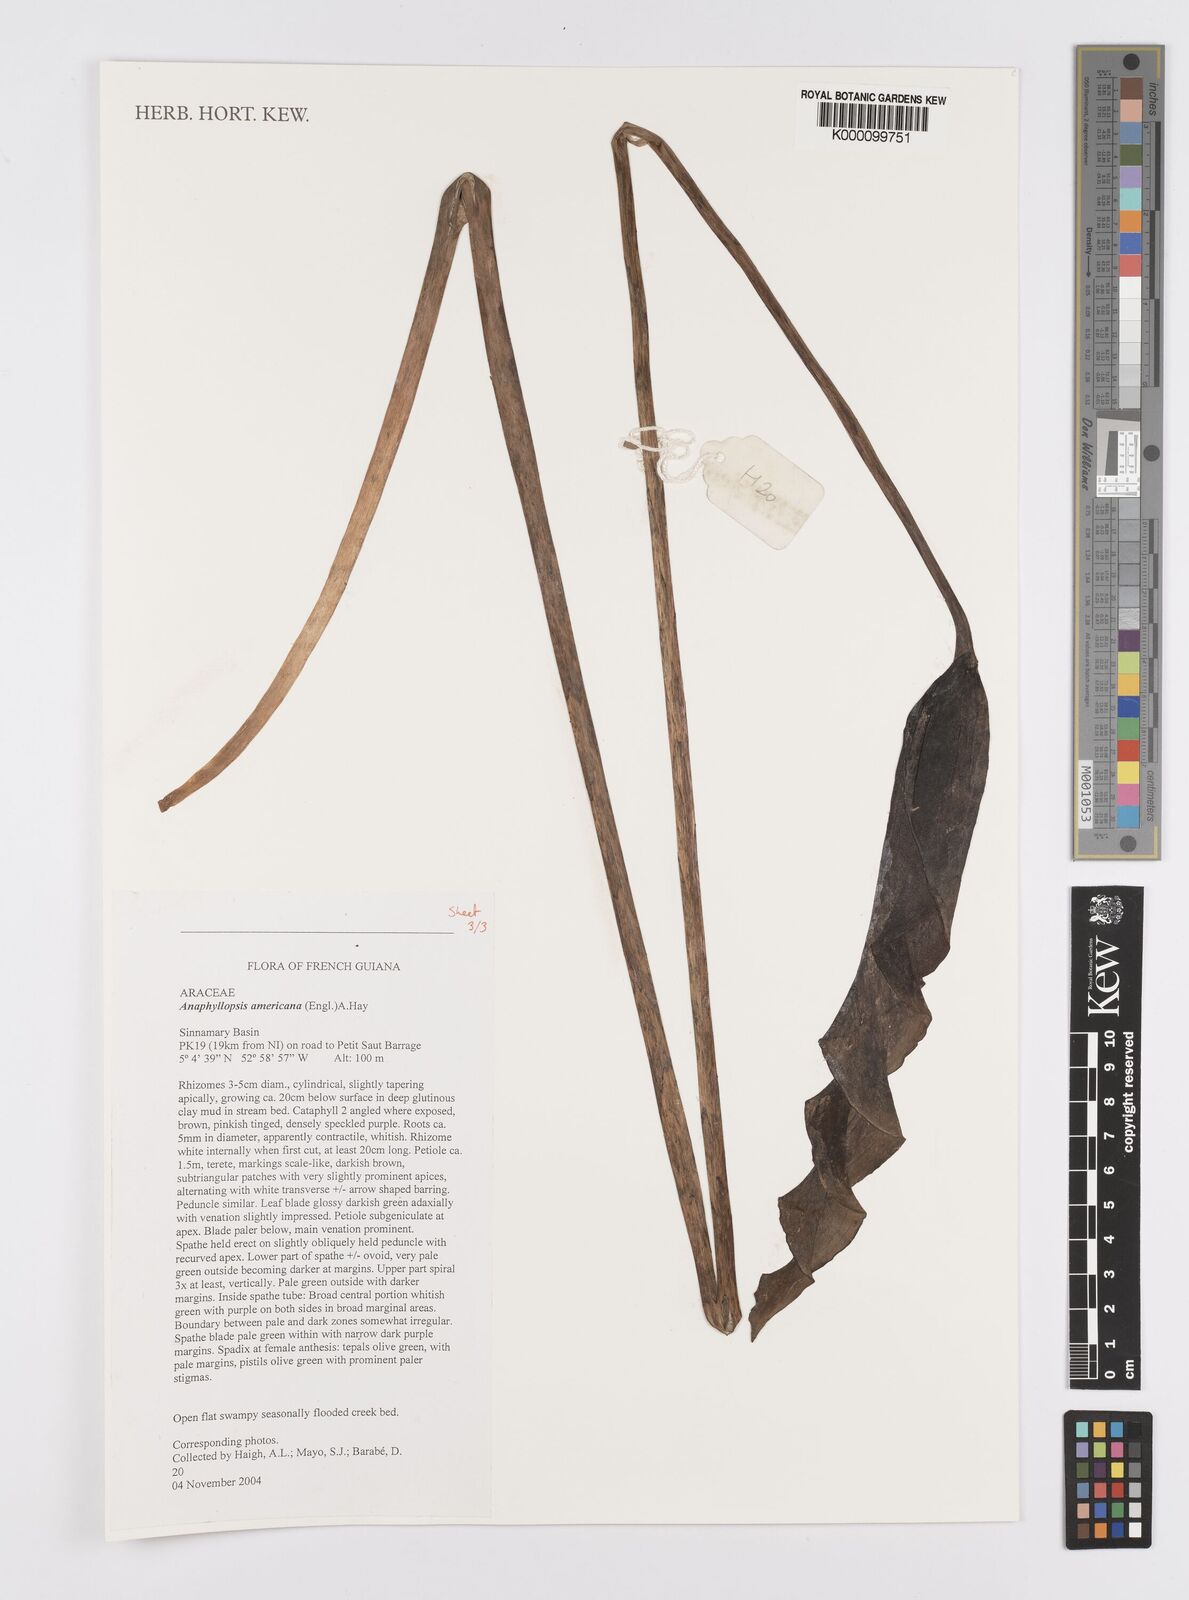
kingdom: Plantae
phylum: Tracheophyta
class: Liliopsida
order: Alismatales
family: Araceae
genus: Anaphyllopsis
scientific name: Anaphyllopsis americana
